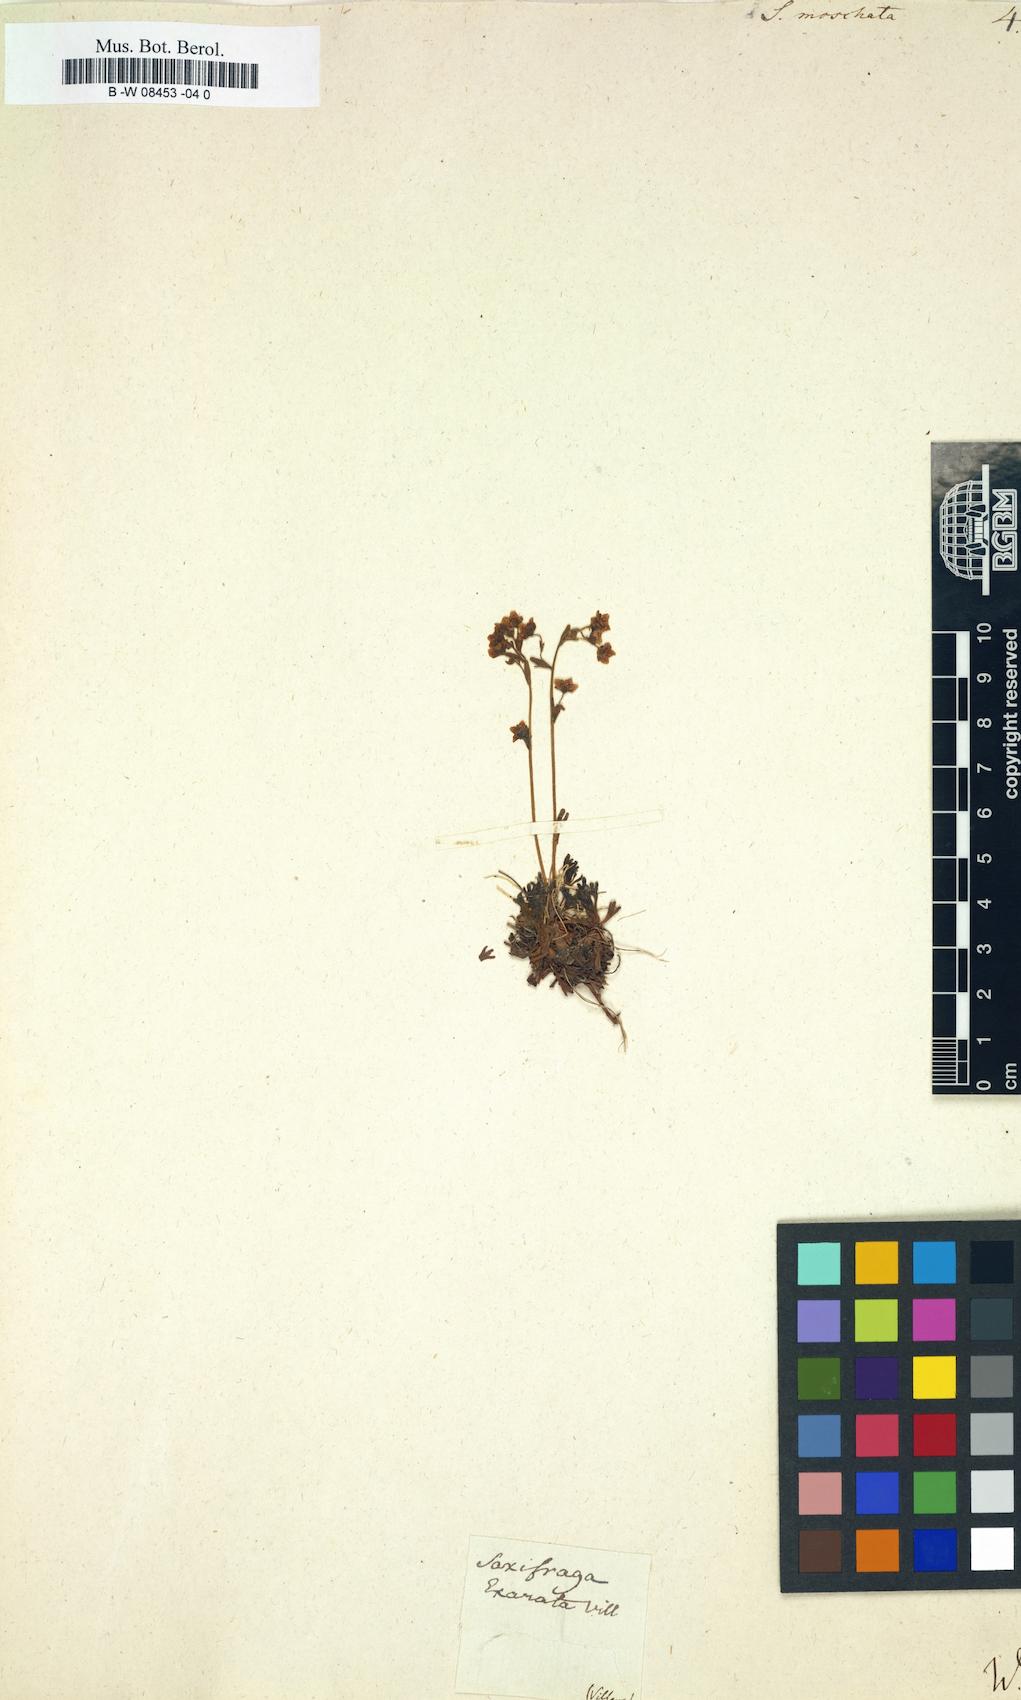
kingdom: Plantae
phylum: Tracheophyta
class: Magnoliopsida
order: Saxifragales
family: Saxifragaceae
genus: Saxifraga
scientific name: Saxifraga
